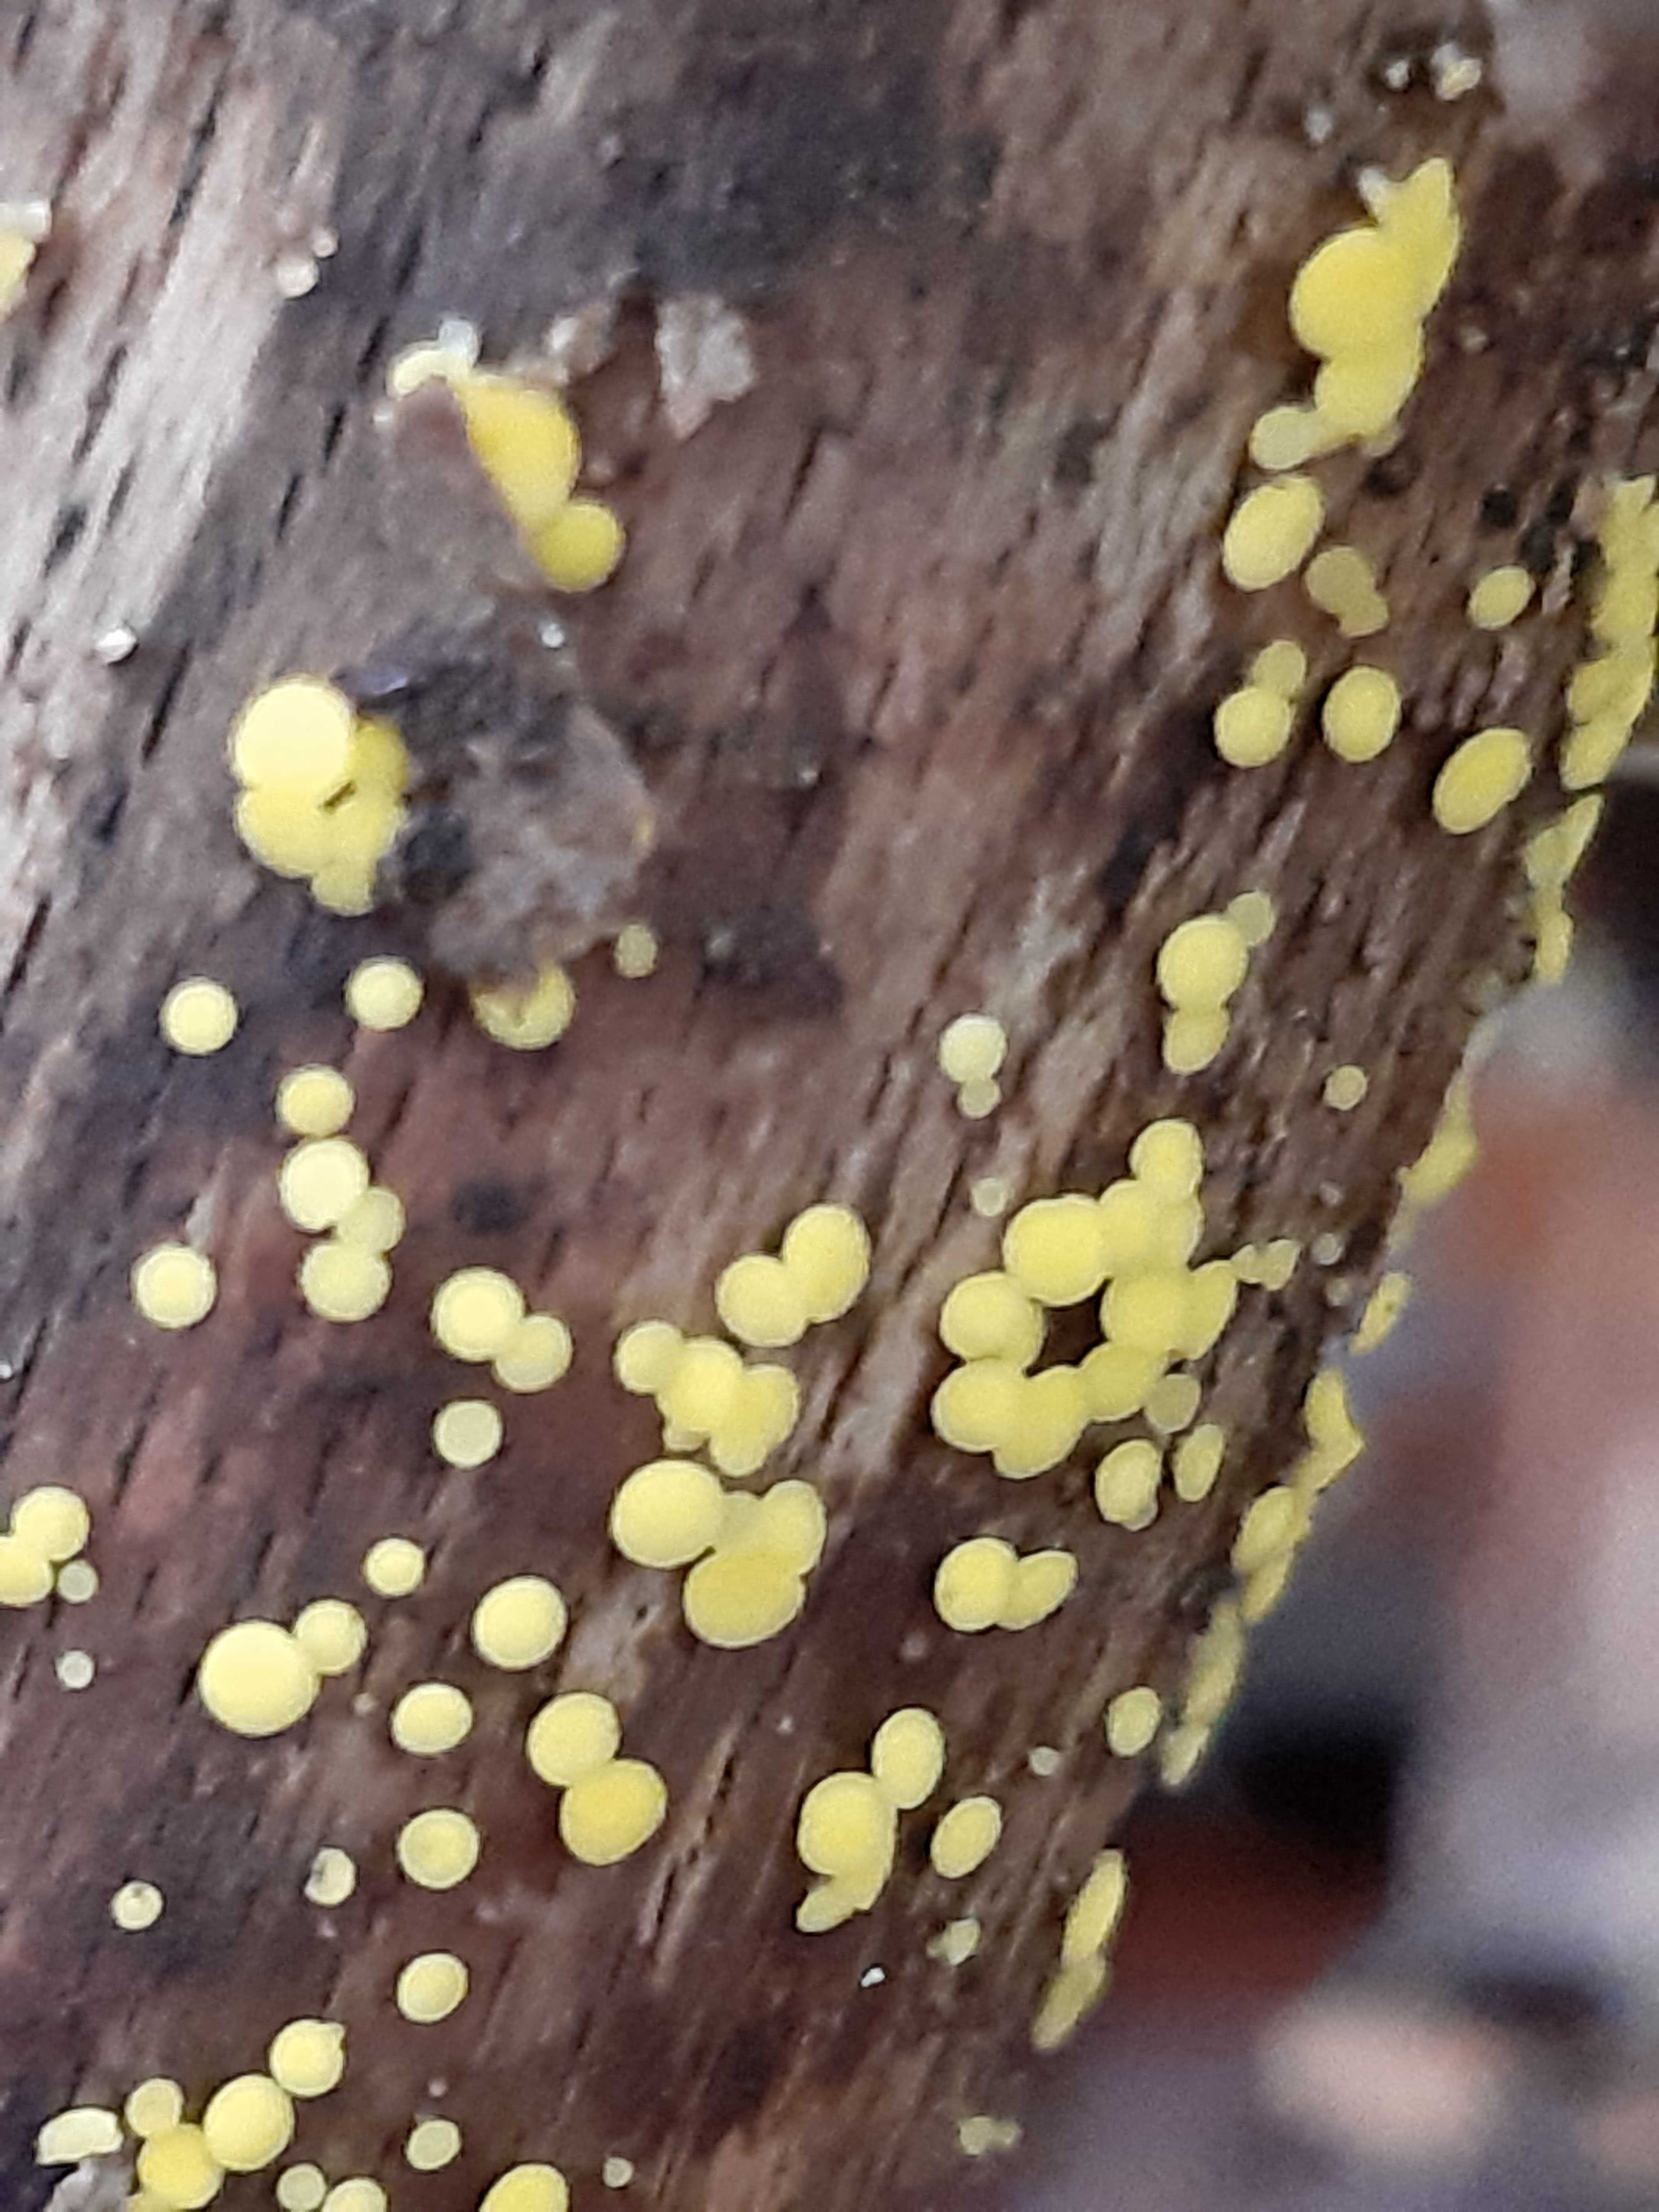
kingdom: Fungi
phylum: Ascomycota
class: Leotiomycetes
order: Helotiales
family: Pezizellaceae
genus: Calycina
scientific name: Calycina citrina
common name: almindelig gulskive
